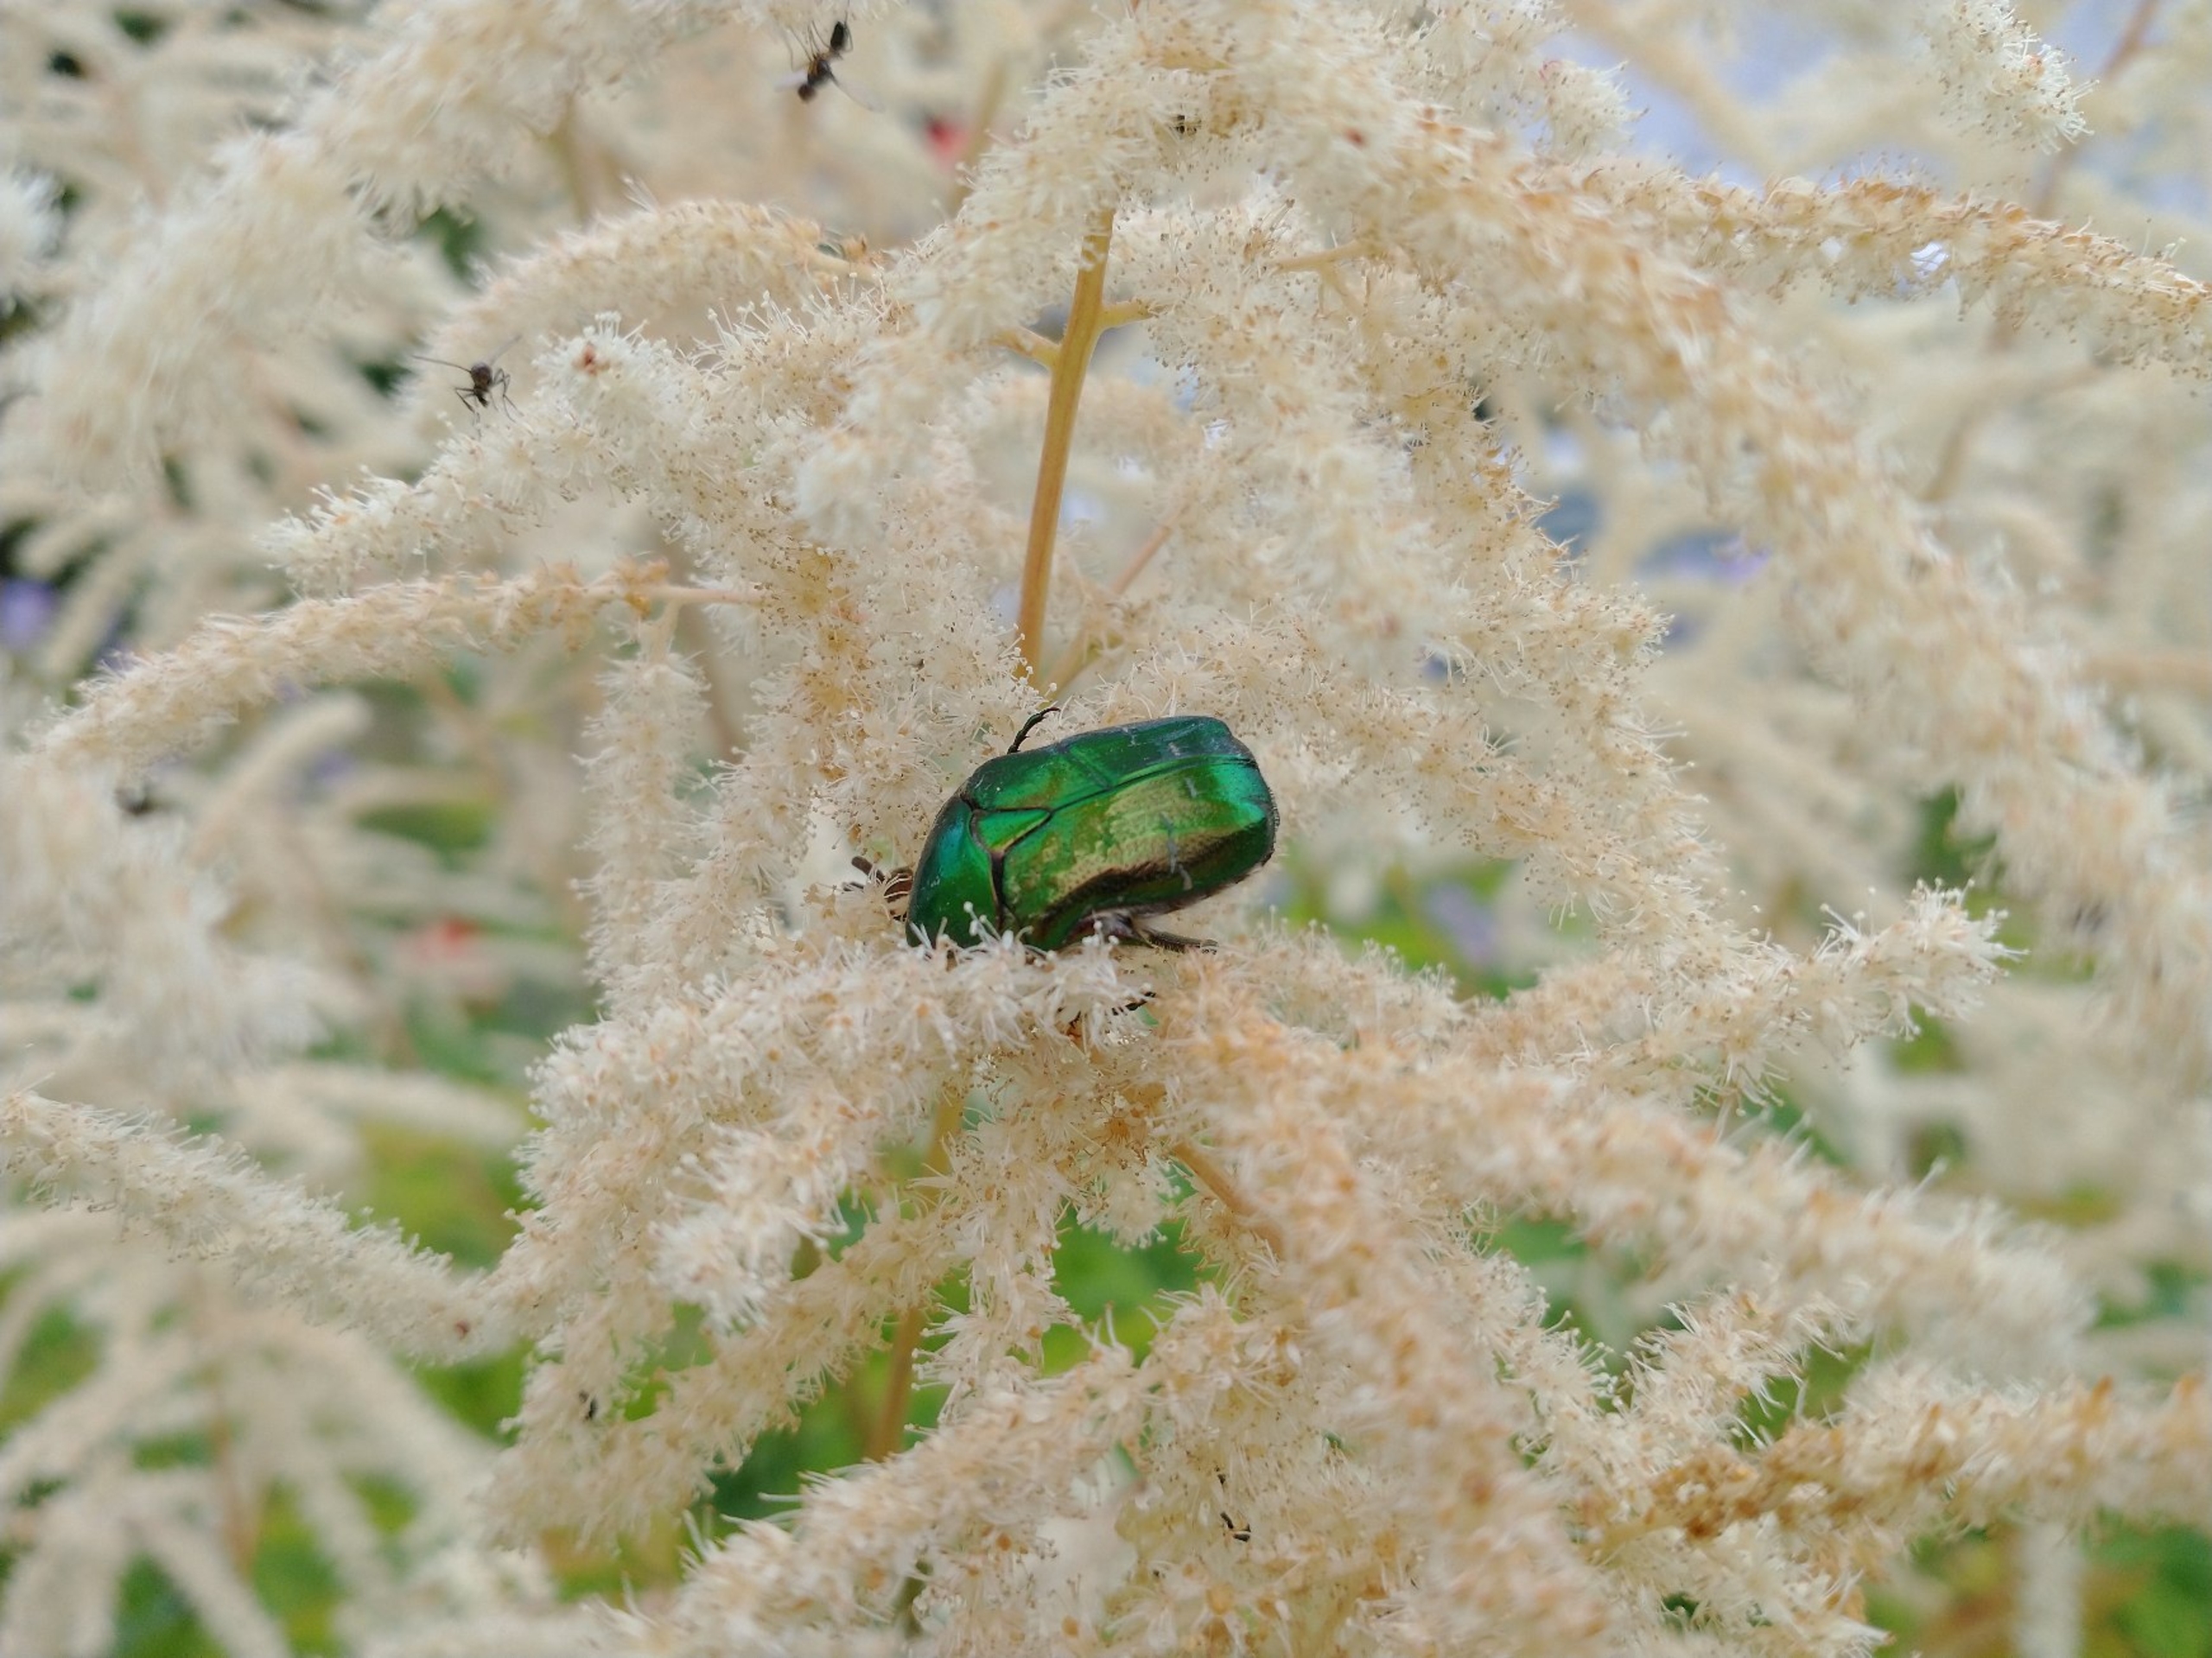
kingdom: Animalia
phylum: Arthropoda
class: Insecta
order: Coleoptera
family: Scarabaeidae
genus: Cetonia
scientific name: Cetonia aurata
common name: Grøn guldbasse
